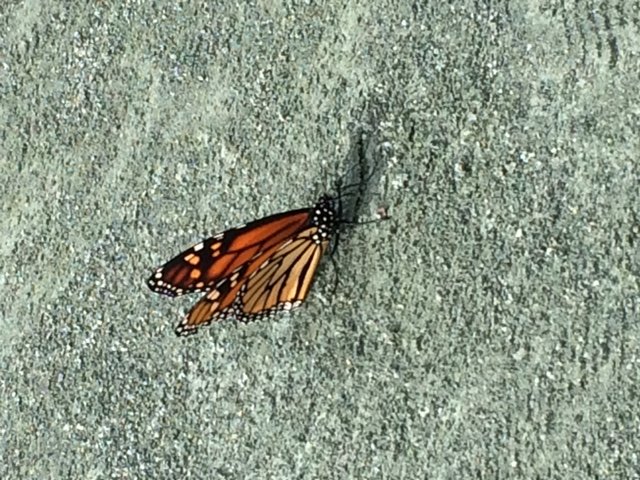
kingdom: Animalia
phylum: Arthropoda
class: Insecta
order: Lepidoptera
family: Nymphalidae
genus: Danaus
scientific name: Danaus plexippus
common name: Monarch
